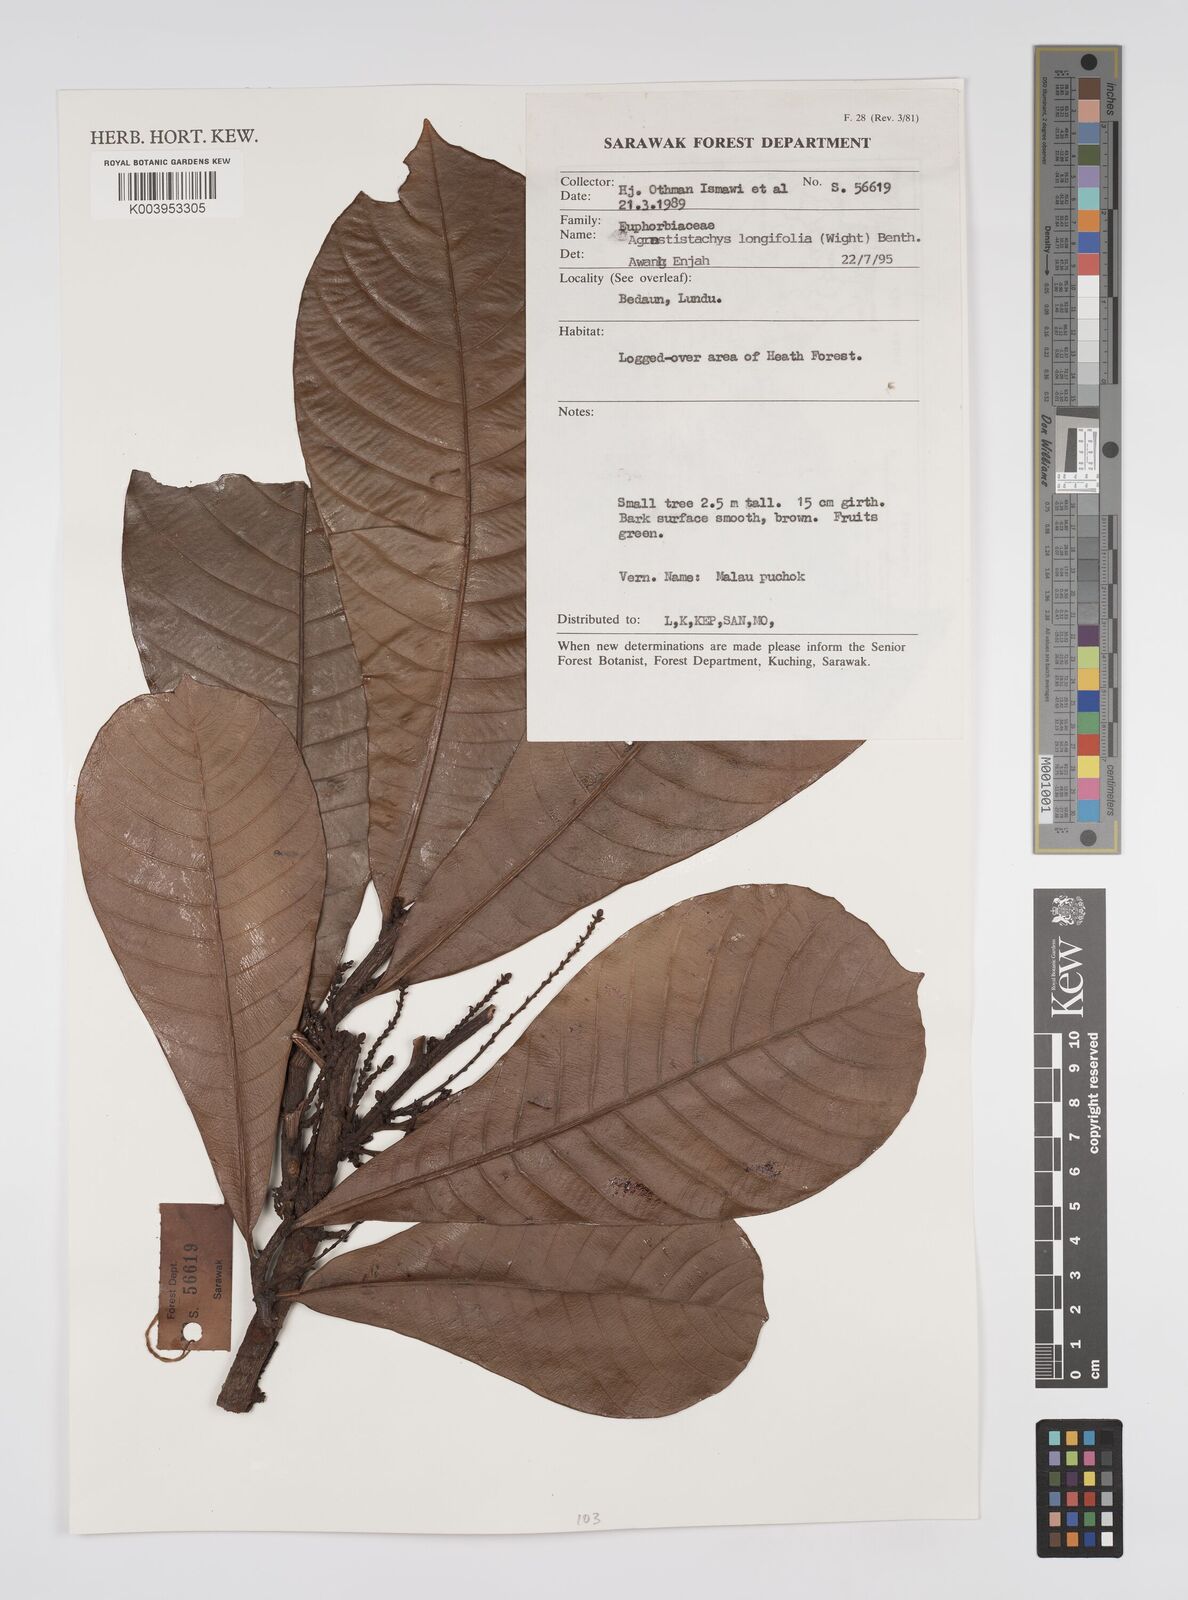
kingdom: Plantae
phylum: Tracheophyta
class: Magnoliopsida
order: Malpighiales
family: Euphorbiaceae
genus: Agrostistachys
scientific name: Agrostistachys borneensis
